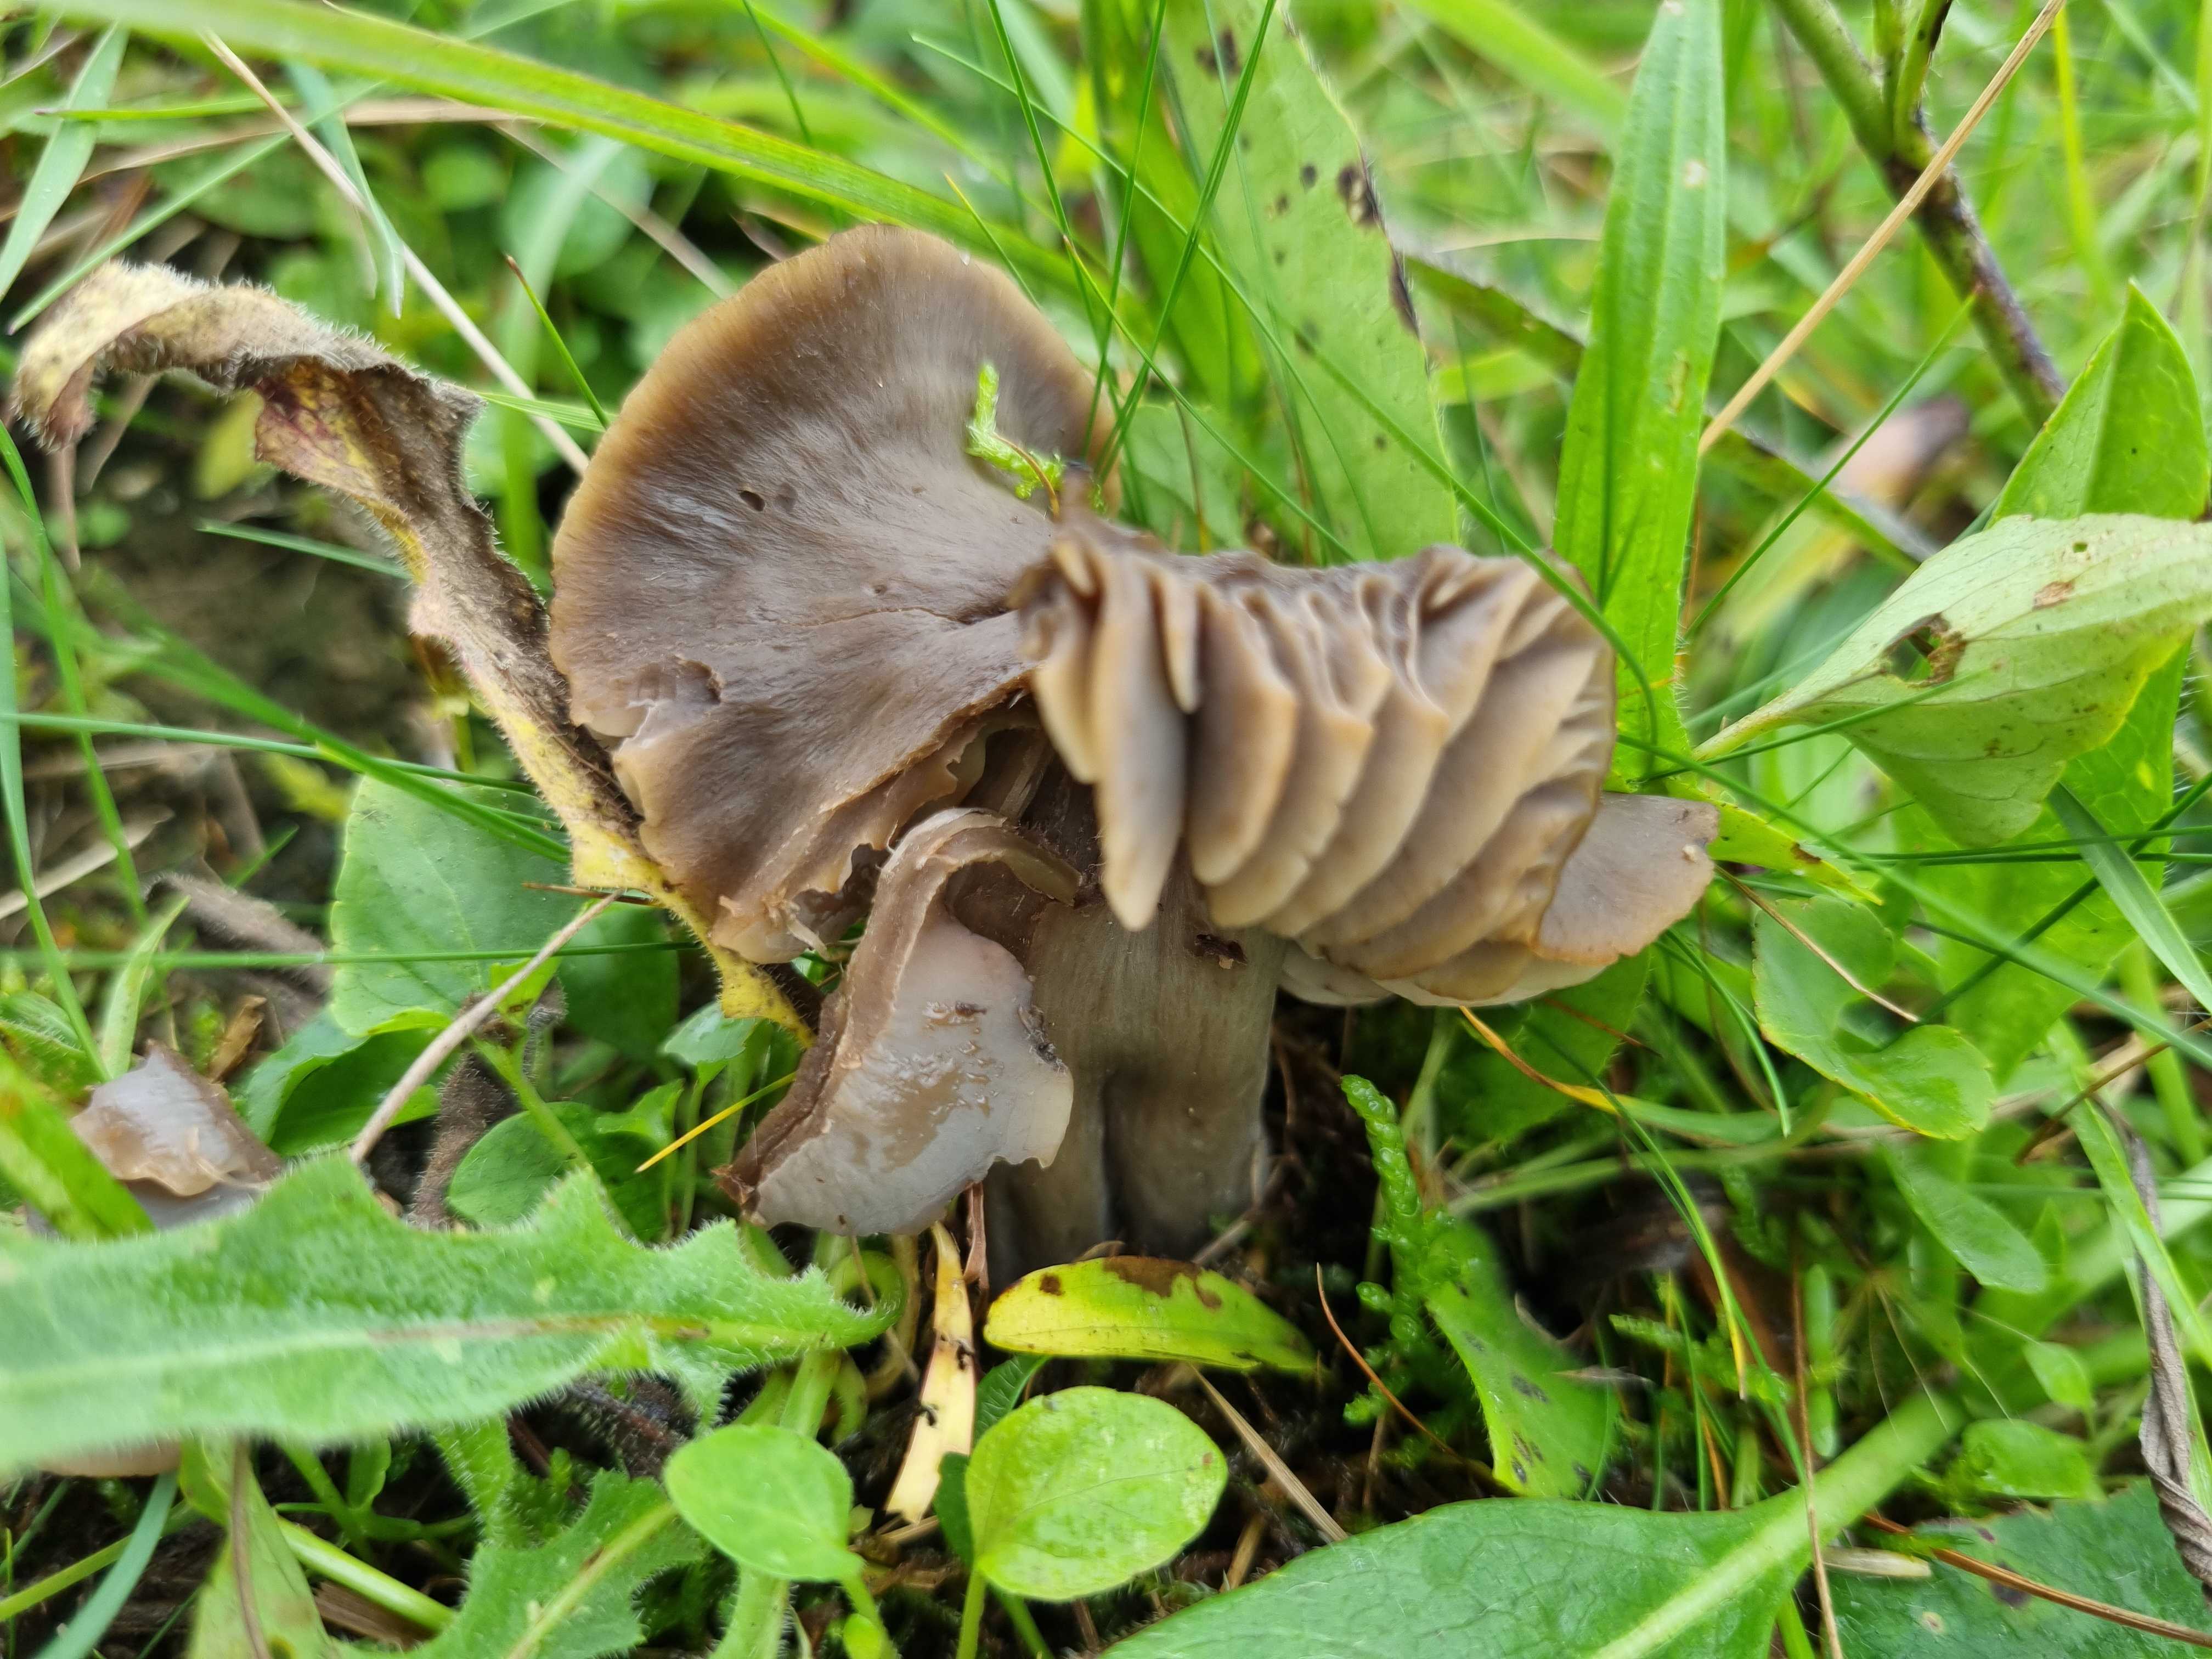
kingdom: Fungi
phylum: Basidiomycota
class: Agaricomycetes
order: Agaricales
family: Hygrophoraceae
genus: Neohygrocybe
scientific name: Neohygrocybe ovina
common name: rødmende vokshat
